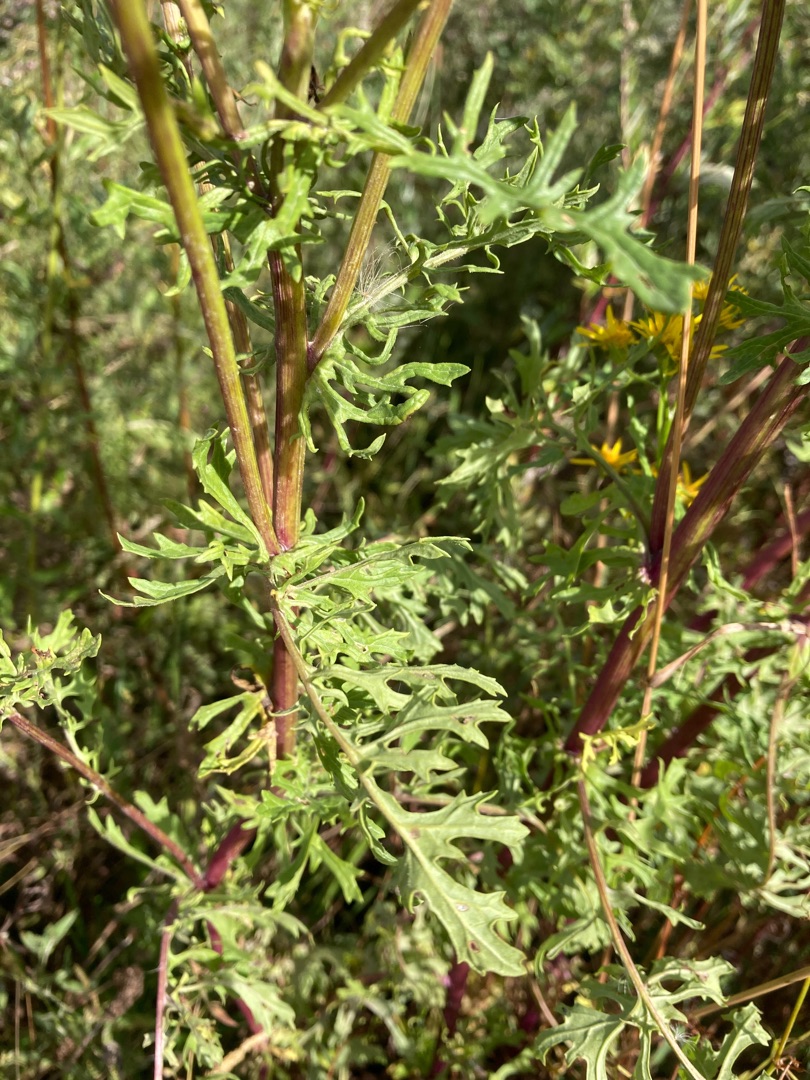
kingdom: Plantae
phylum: Tracheophyta
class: Magnoliopsida
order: Asterales
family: Asteraceae
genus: Jacobaea
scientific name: Jacobaea vulgaris
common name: Eng-brandbæger
